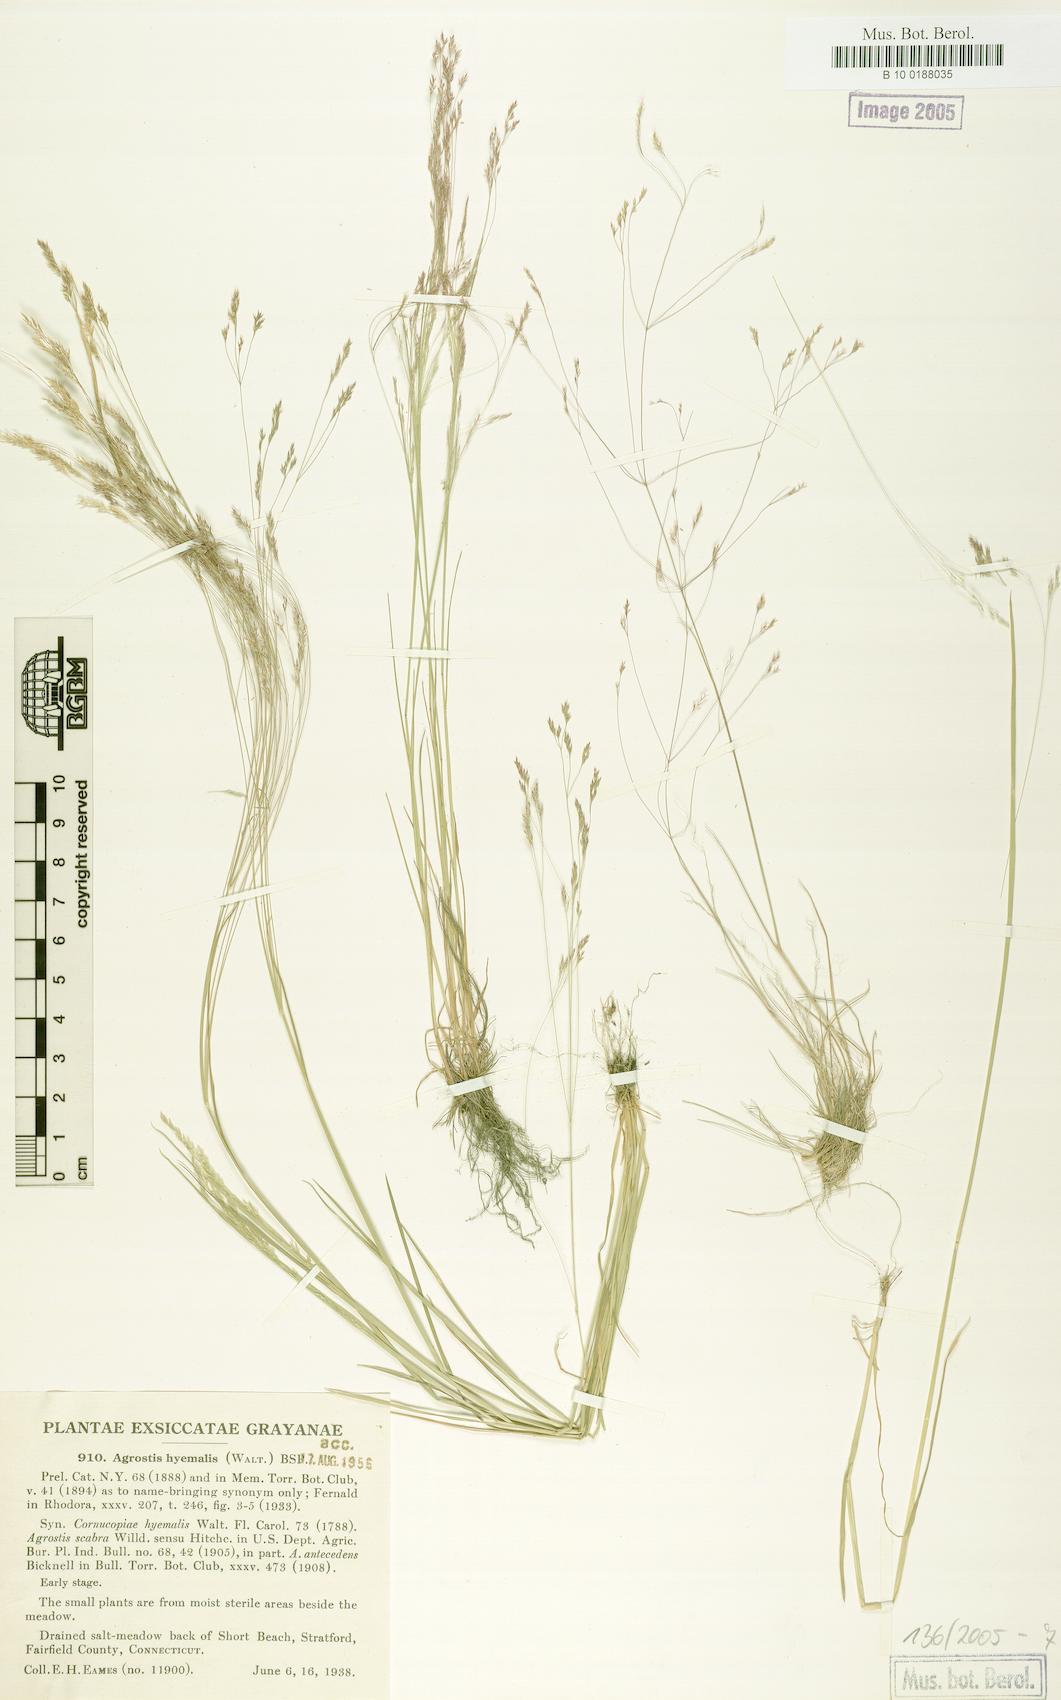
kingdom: Plantae
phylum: Tracheophyta
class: Liliopsida
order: Poales
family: Poaceae
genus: Agrostis
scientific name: Agrostis hyemalis
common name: Small bent
